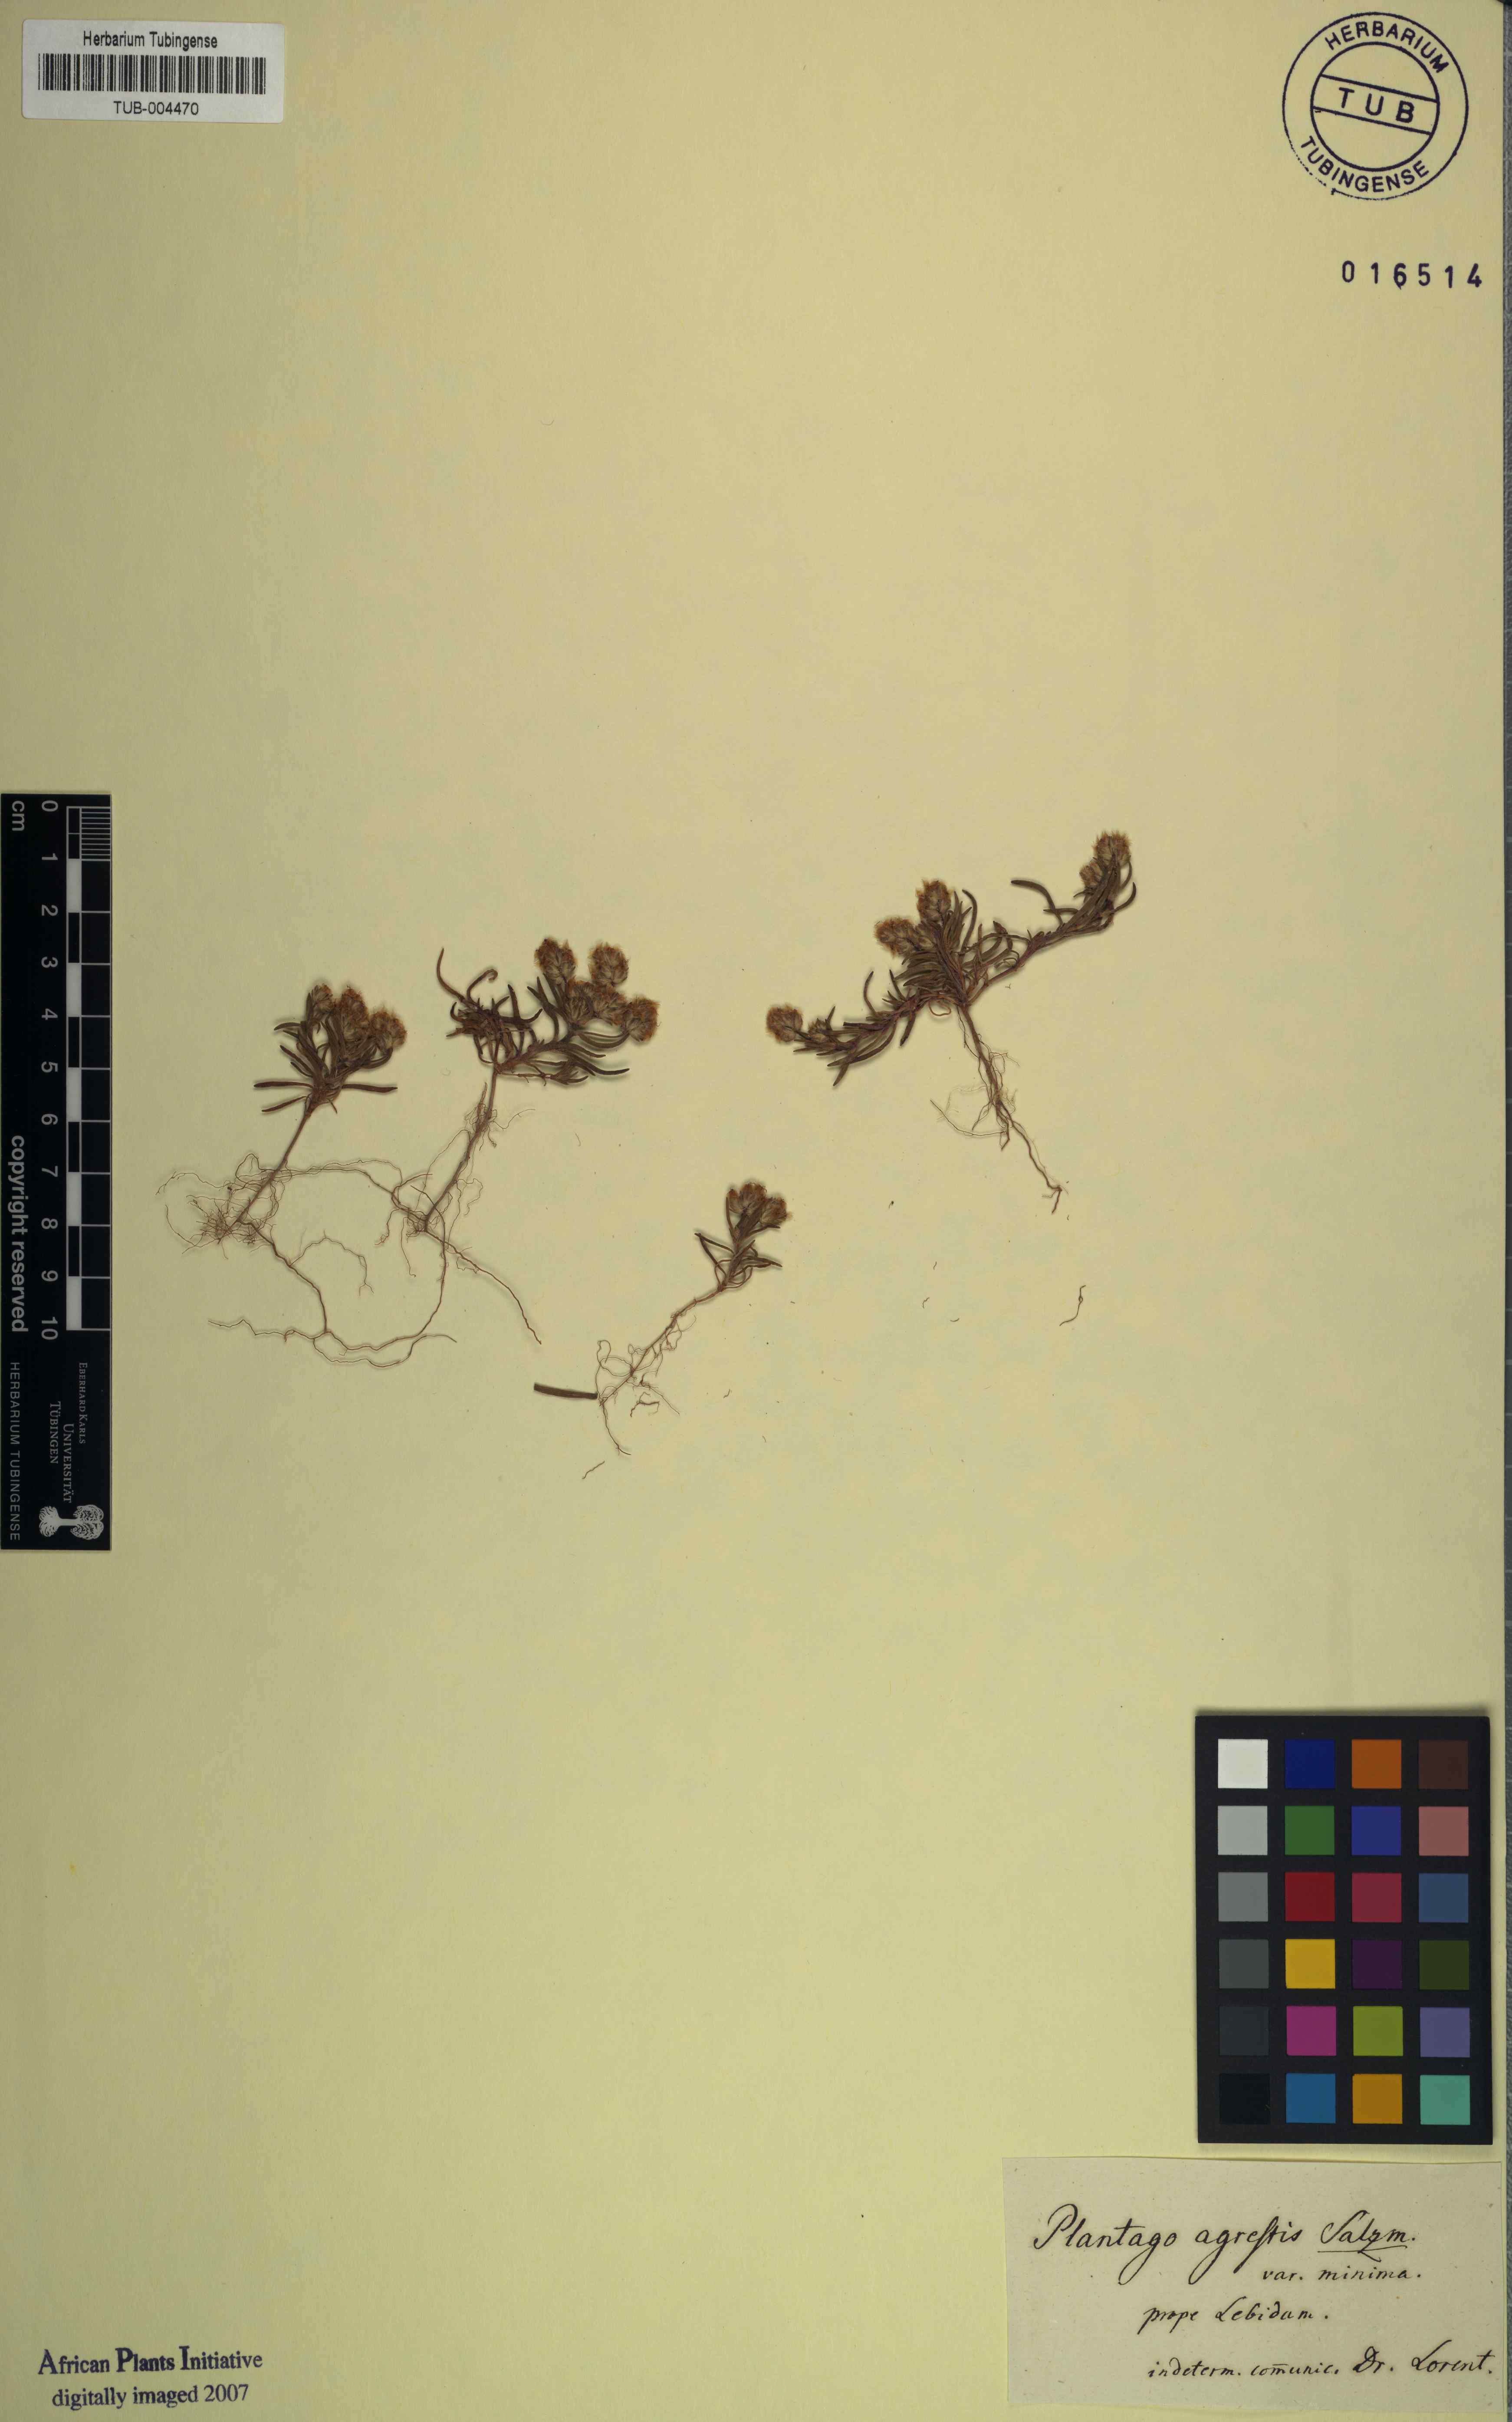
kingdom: Plantae
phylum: Tracheophyta
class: Magnoliopsida
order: Lamiales
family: Plantaginaceae
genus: Plantago
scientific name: Plantago
